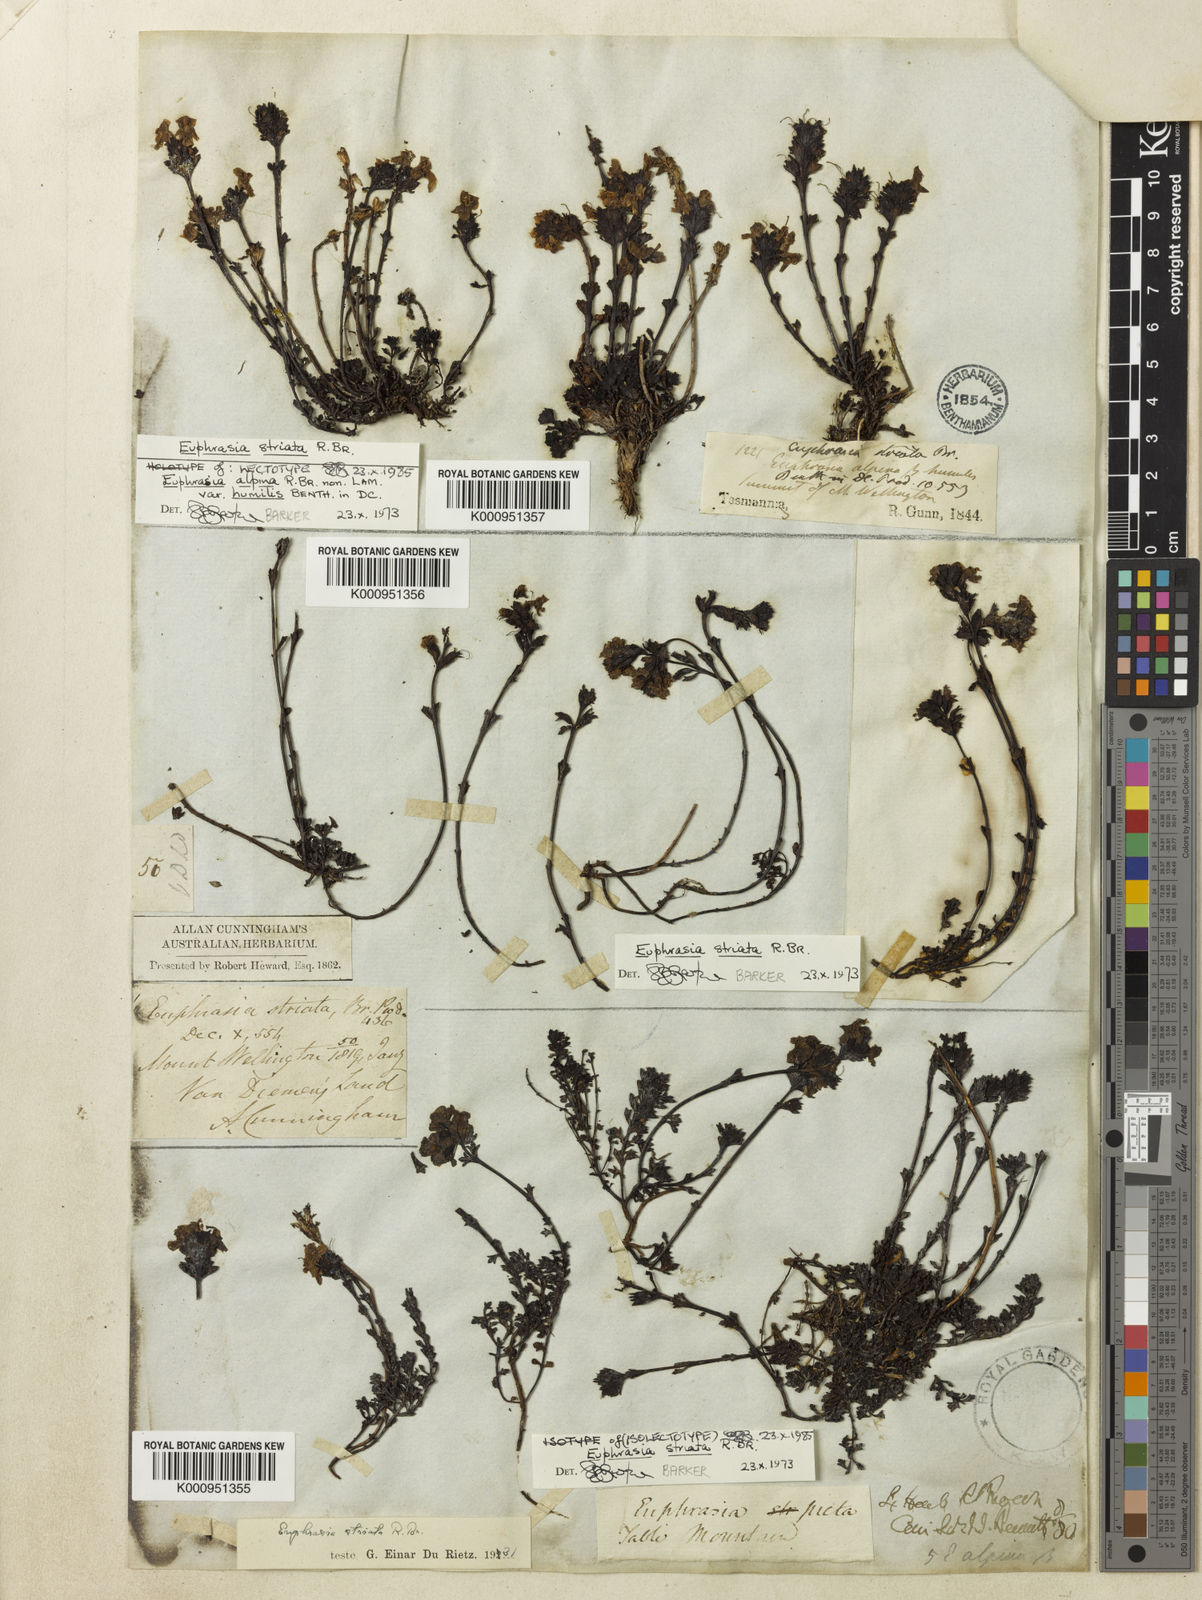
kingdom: Plantae
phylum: Tracheophyta
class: Magnoliopsida
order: Lamiales
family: Orobanchaceae
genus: Euphrasia
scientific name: Euphrasia striata
